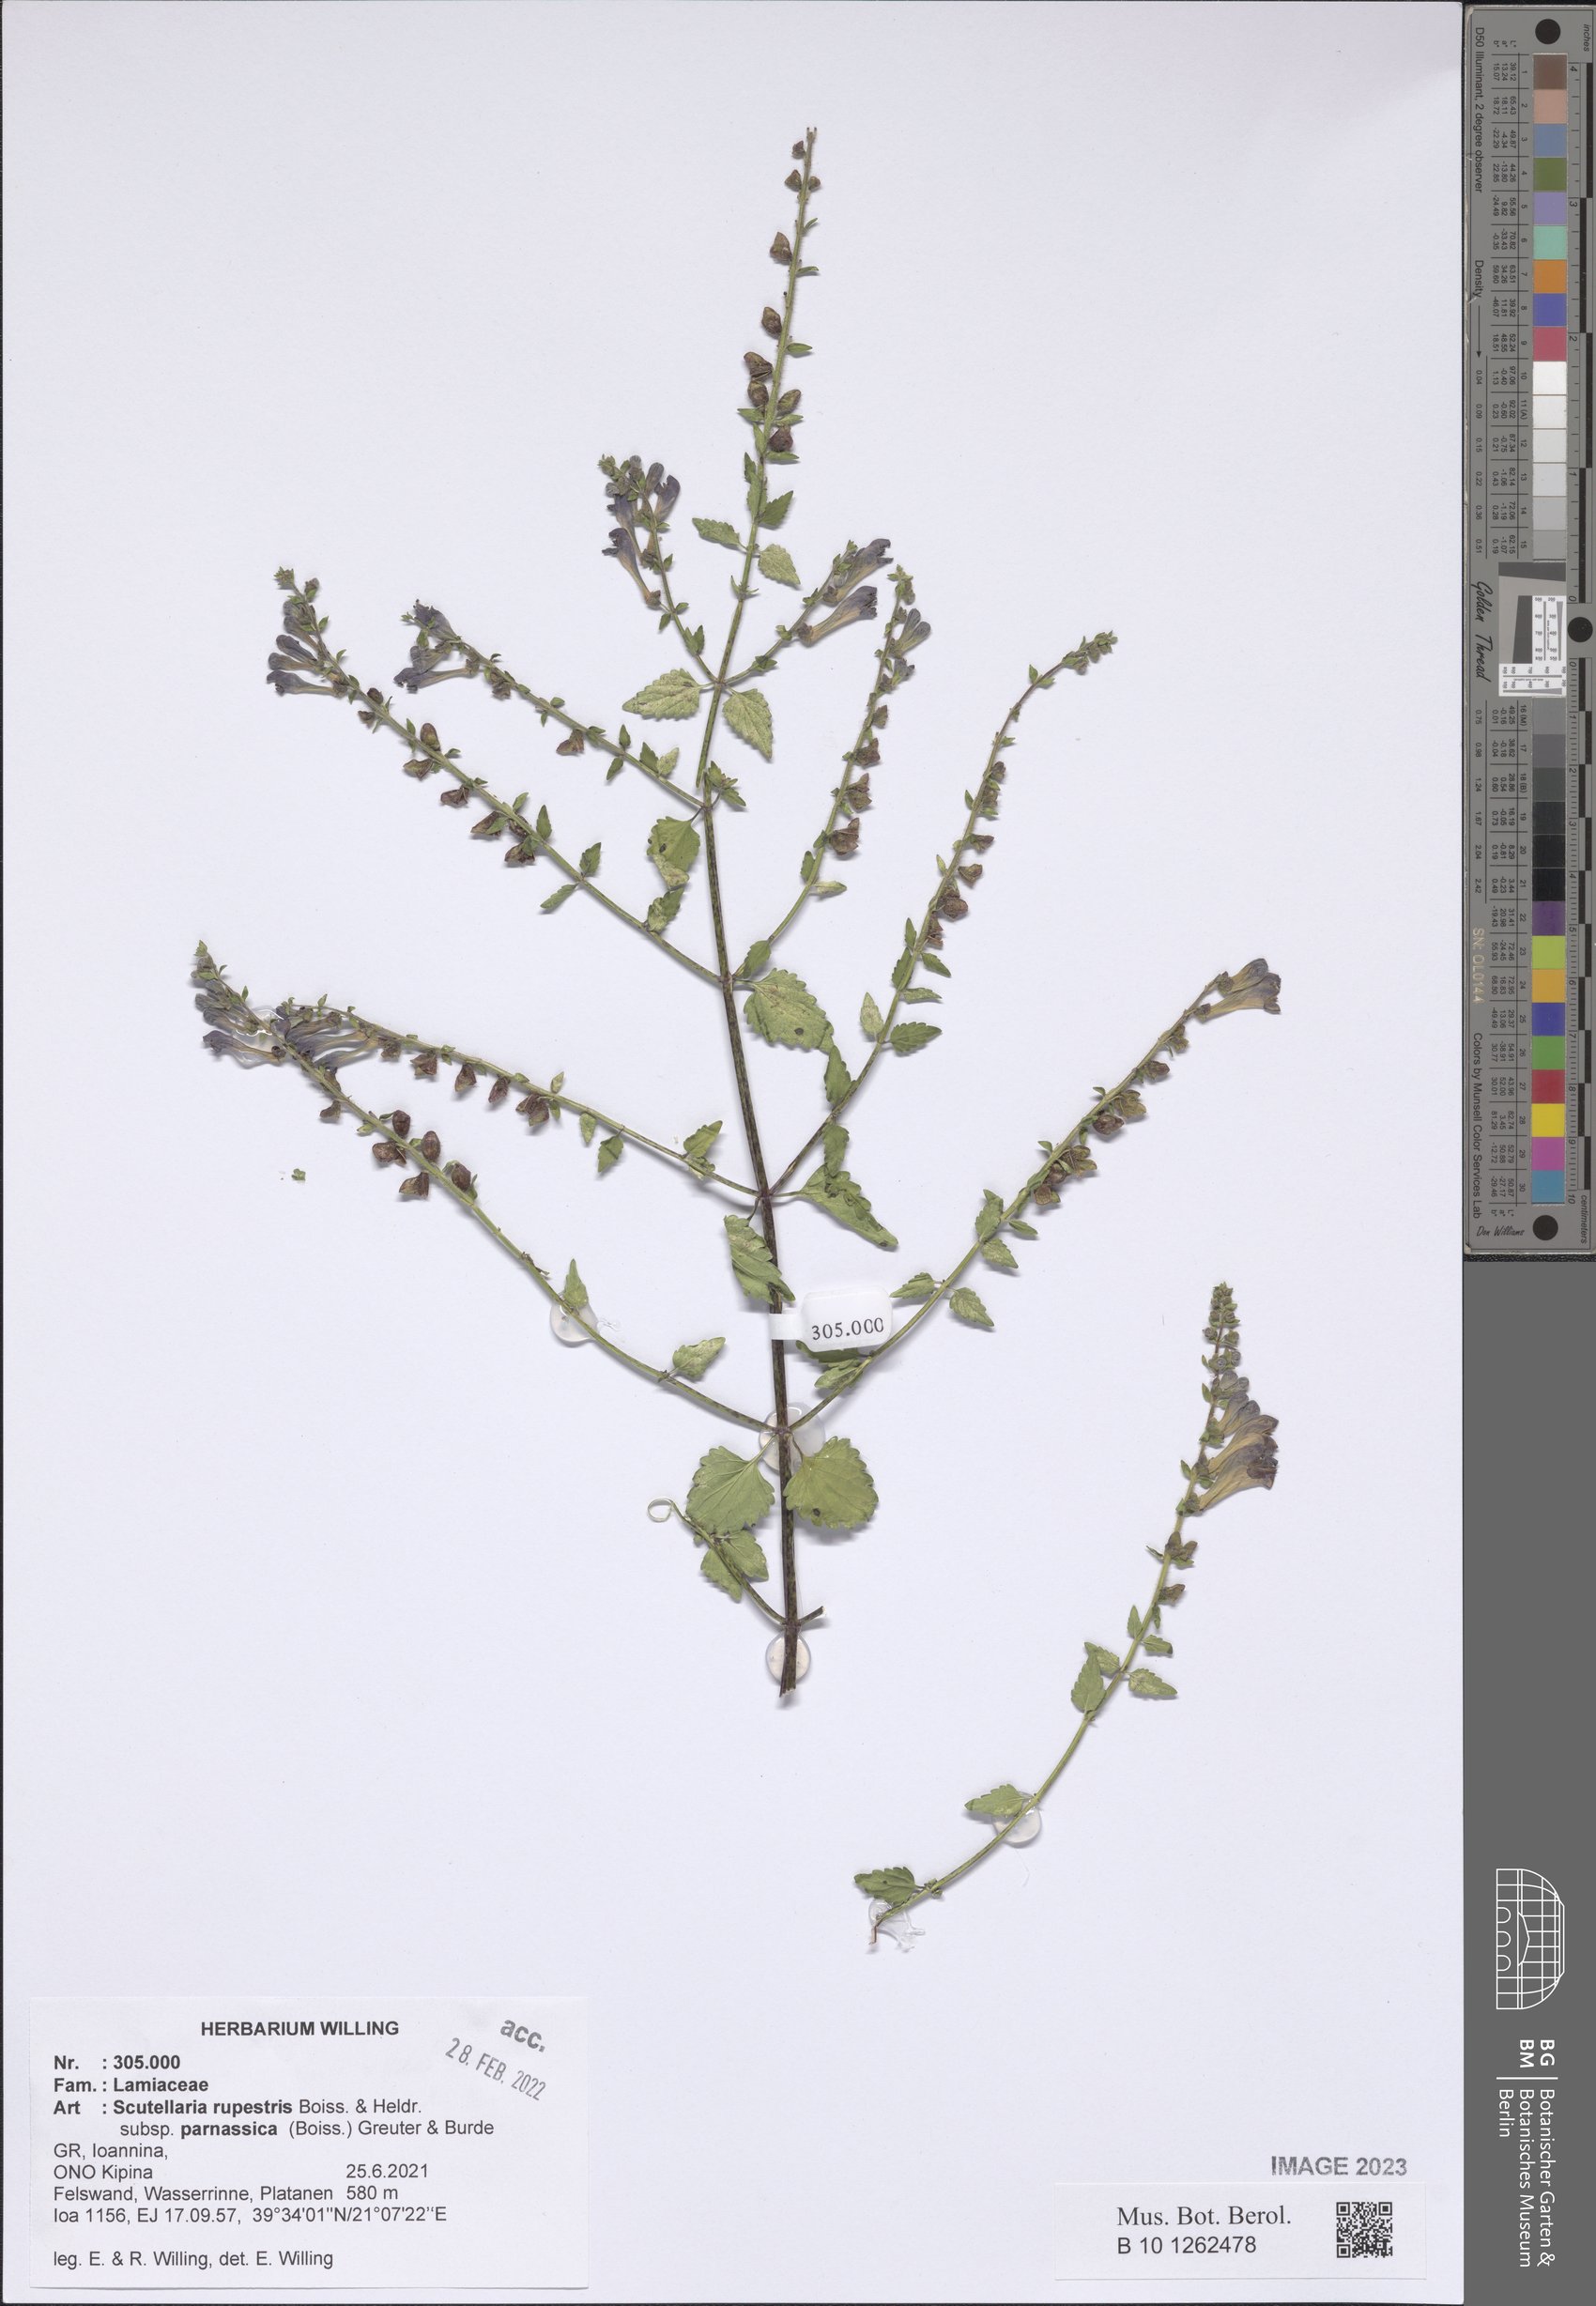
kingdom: Plantae
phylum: Tracheophyta
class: Magnoliopsida
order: Lamiales
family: Lamiaceae
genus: Scutellaria
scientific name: Scutellaria rupestris
